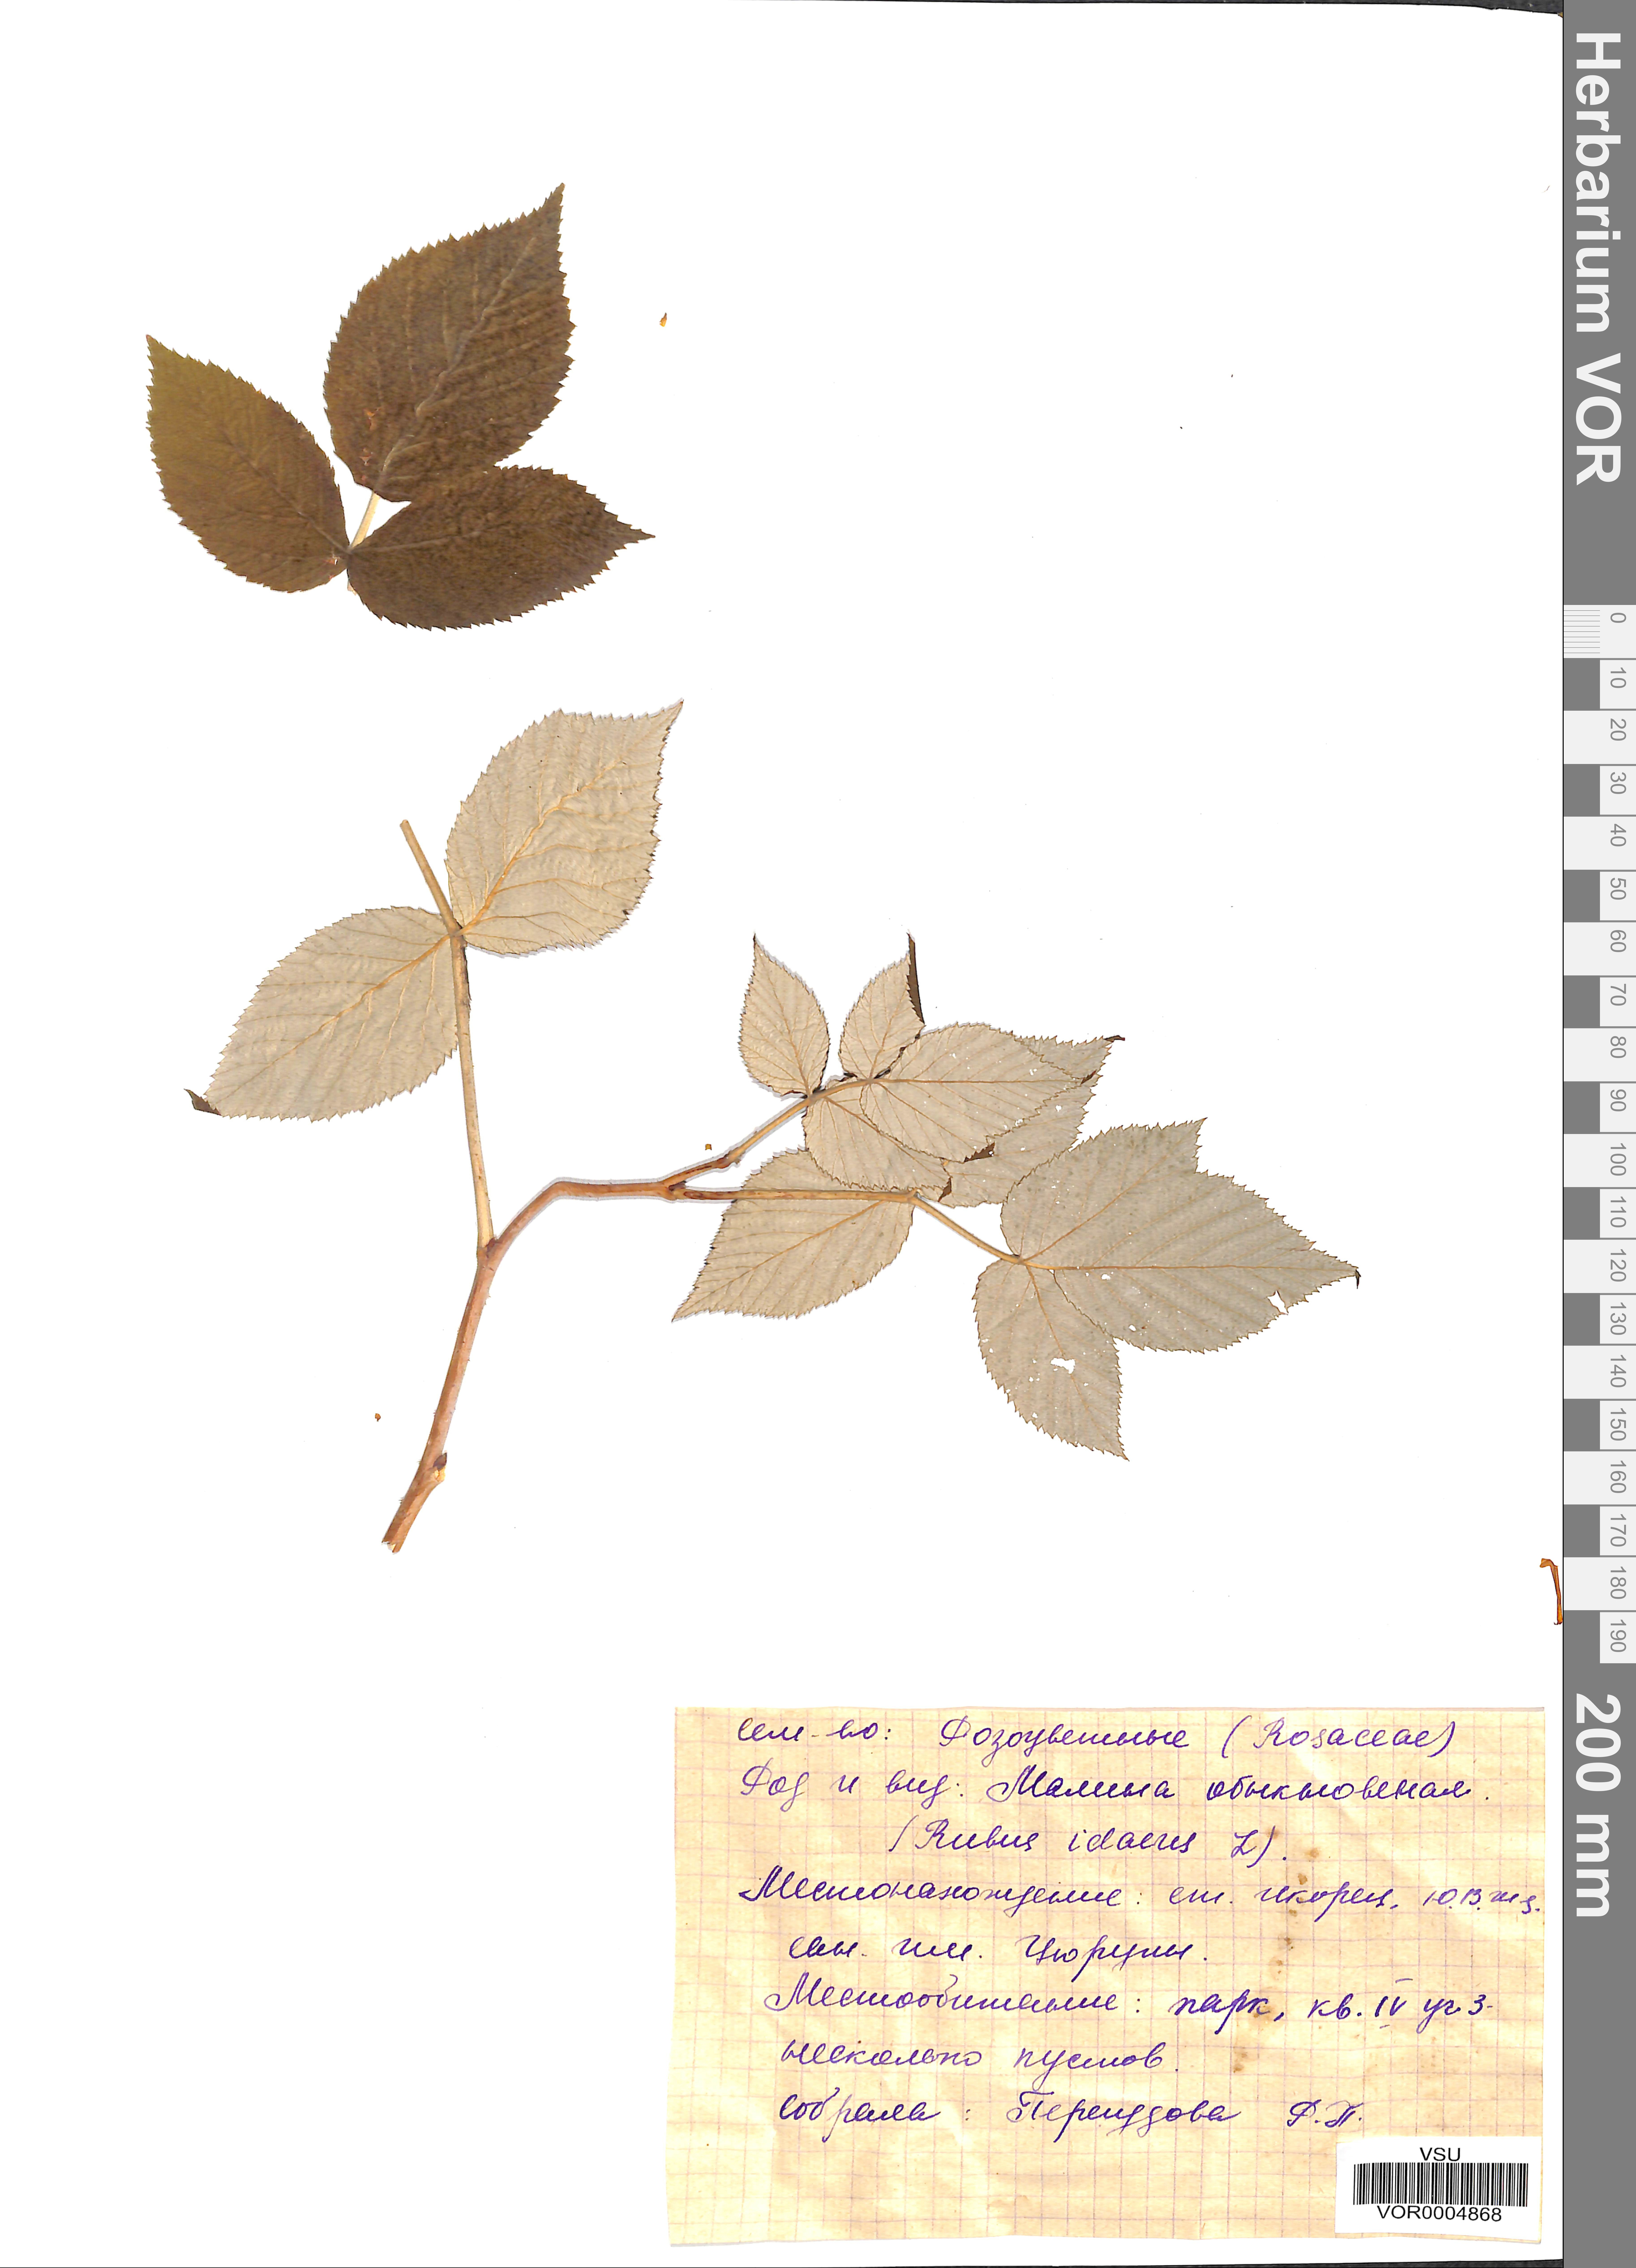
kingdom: Plantae
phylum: Tracheophyta
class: Magnoliopsida
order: Rosales
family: Rosaceae
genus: Rubus
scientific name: Rubus idaeus
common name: Raspberry
